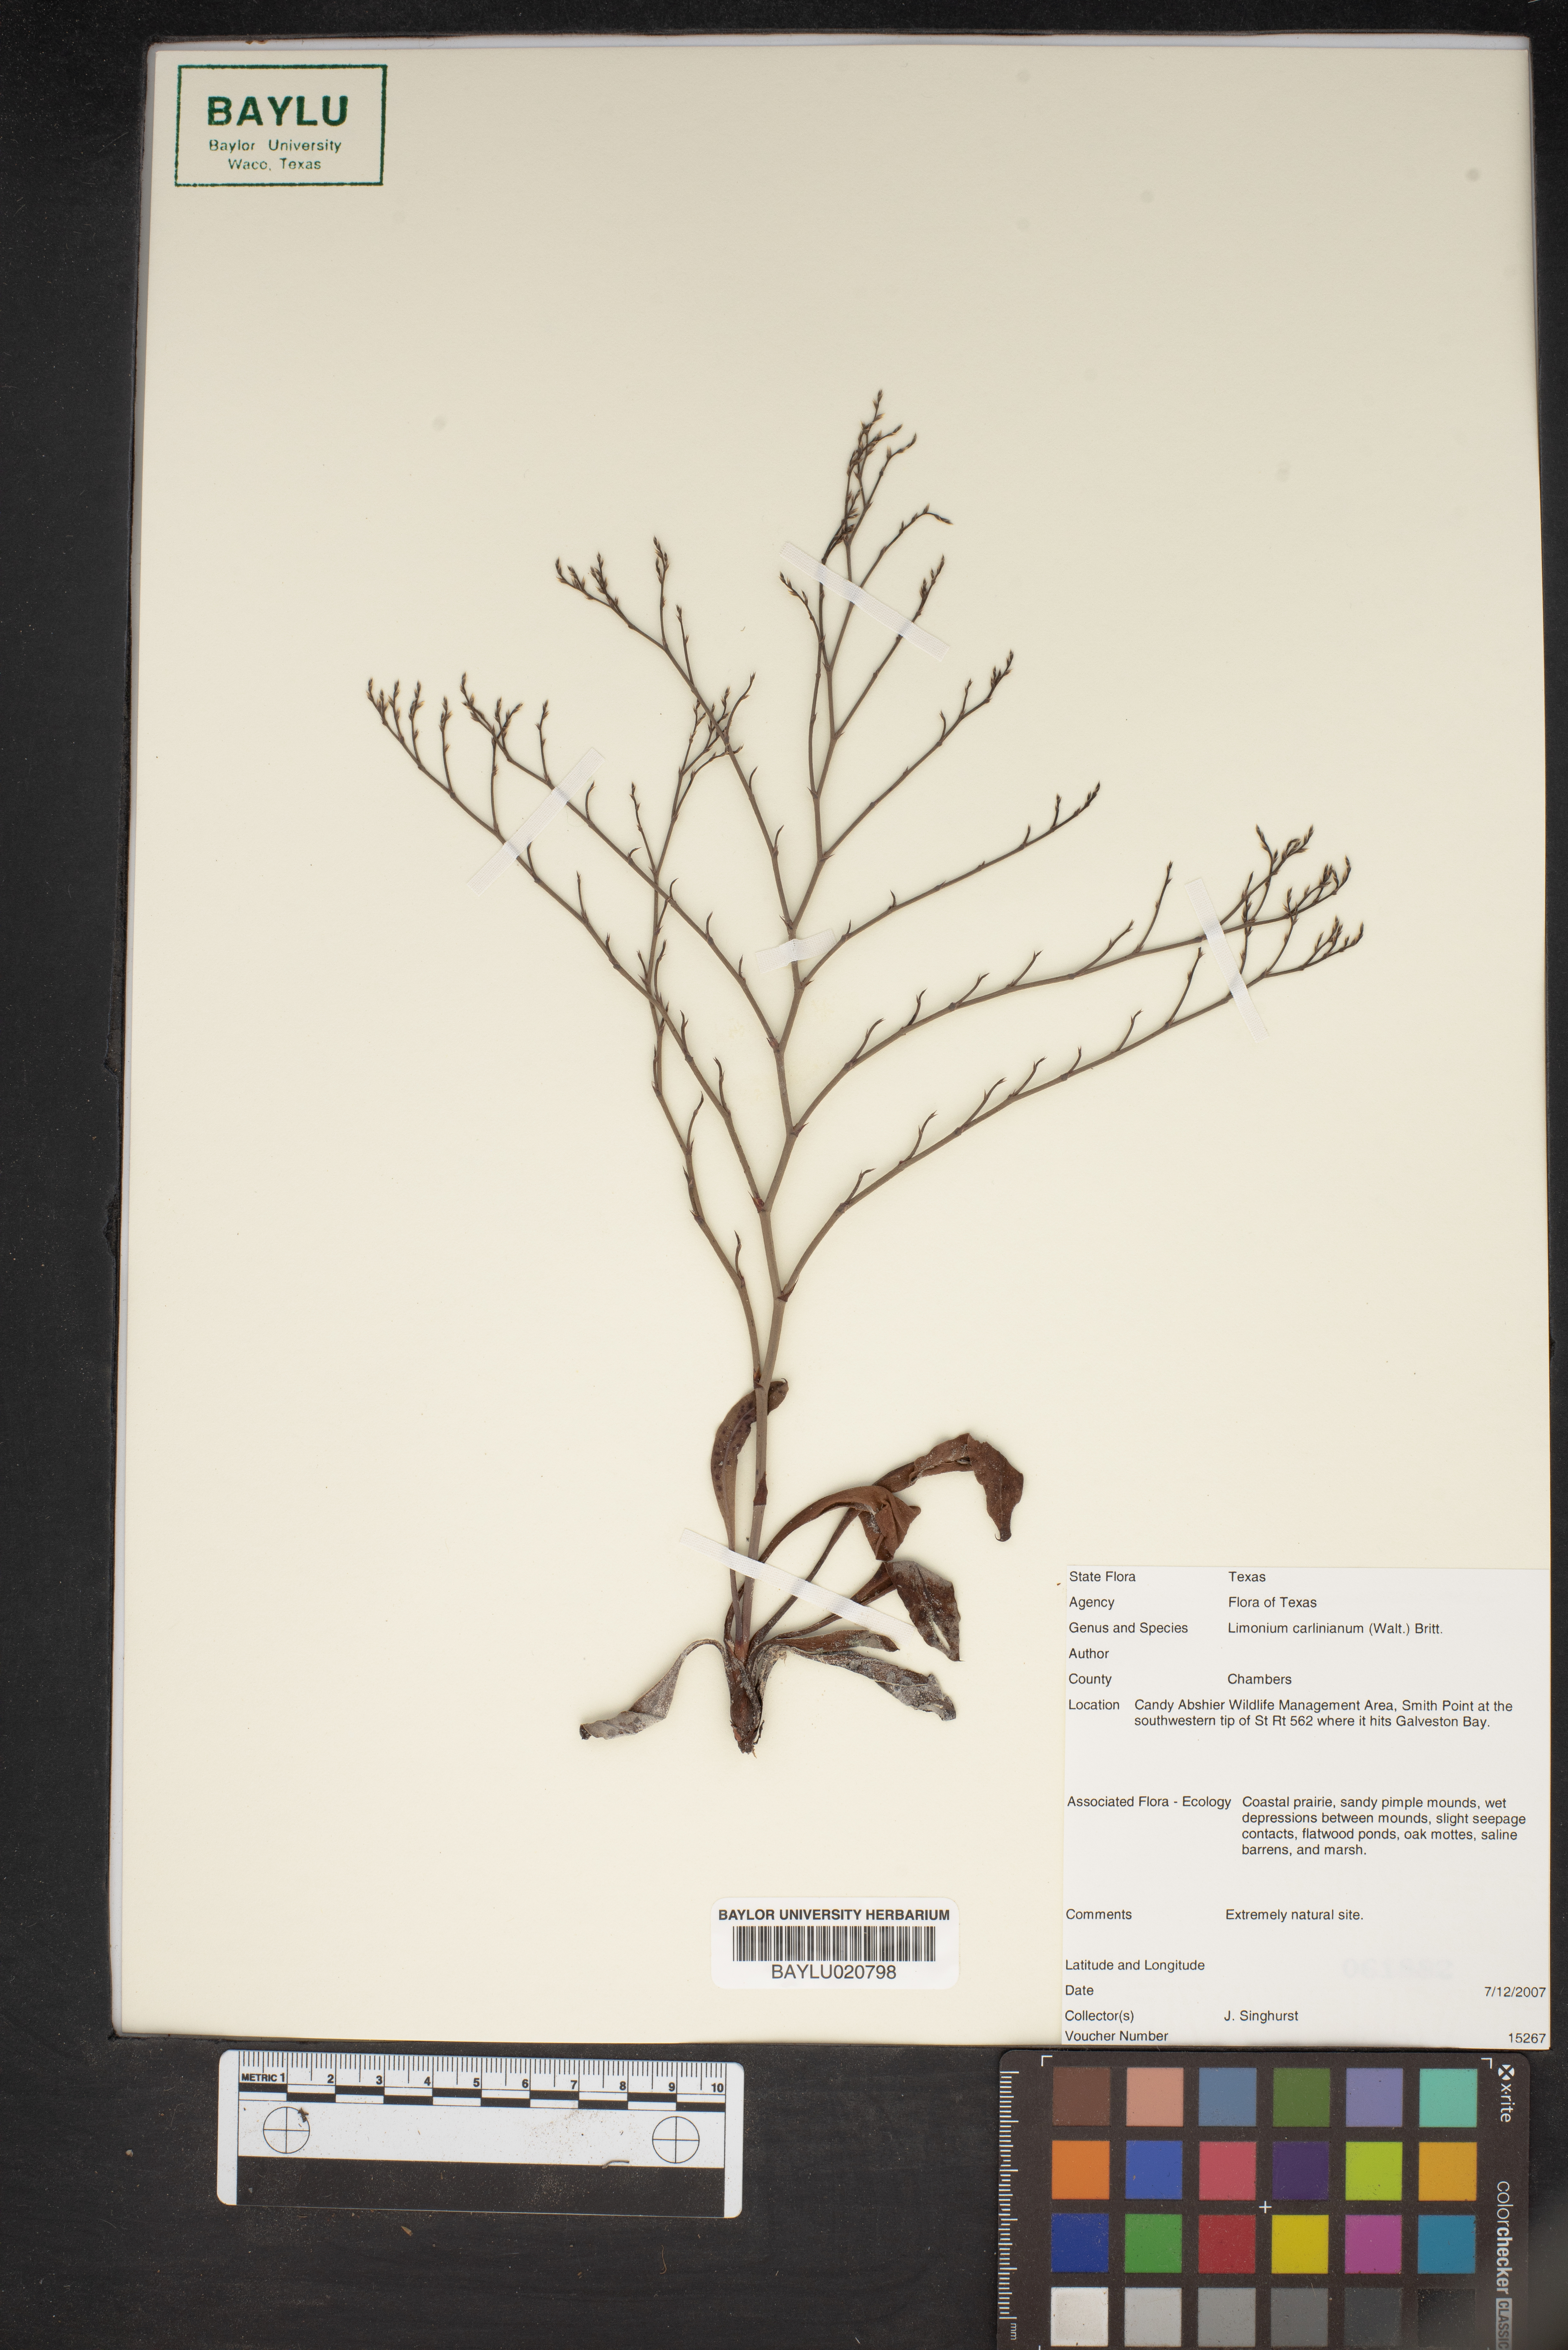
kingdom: Plantae
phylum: Tracheophyta
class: Magnoliopsida
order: Caryophyllales
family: Plumbaginaceae
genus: Limonium
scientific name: Limonium carolinianum
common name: Carolina sea lavender
